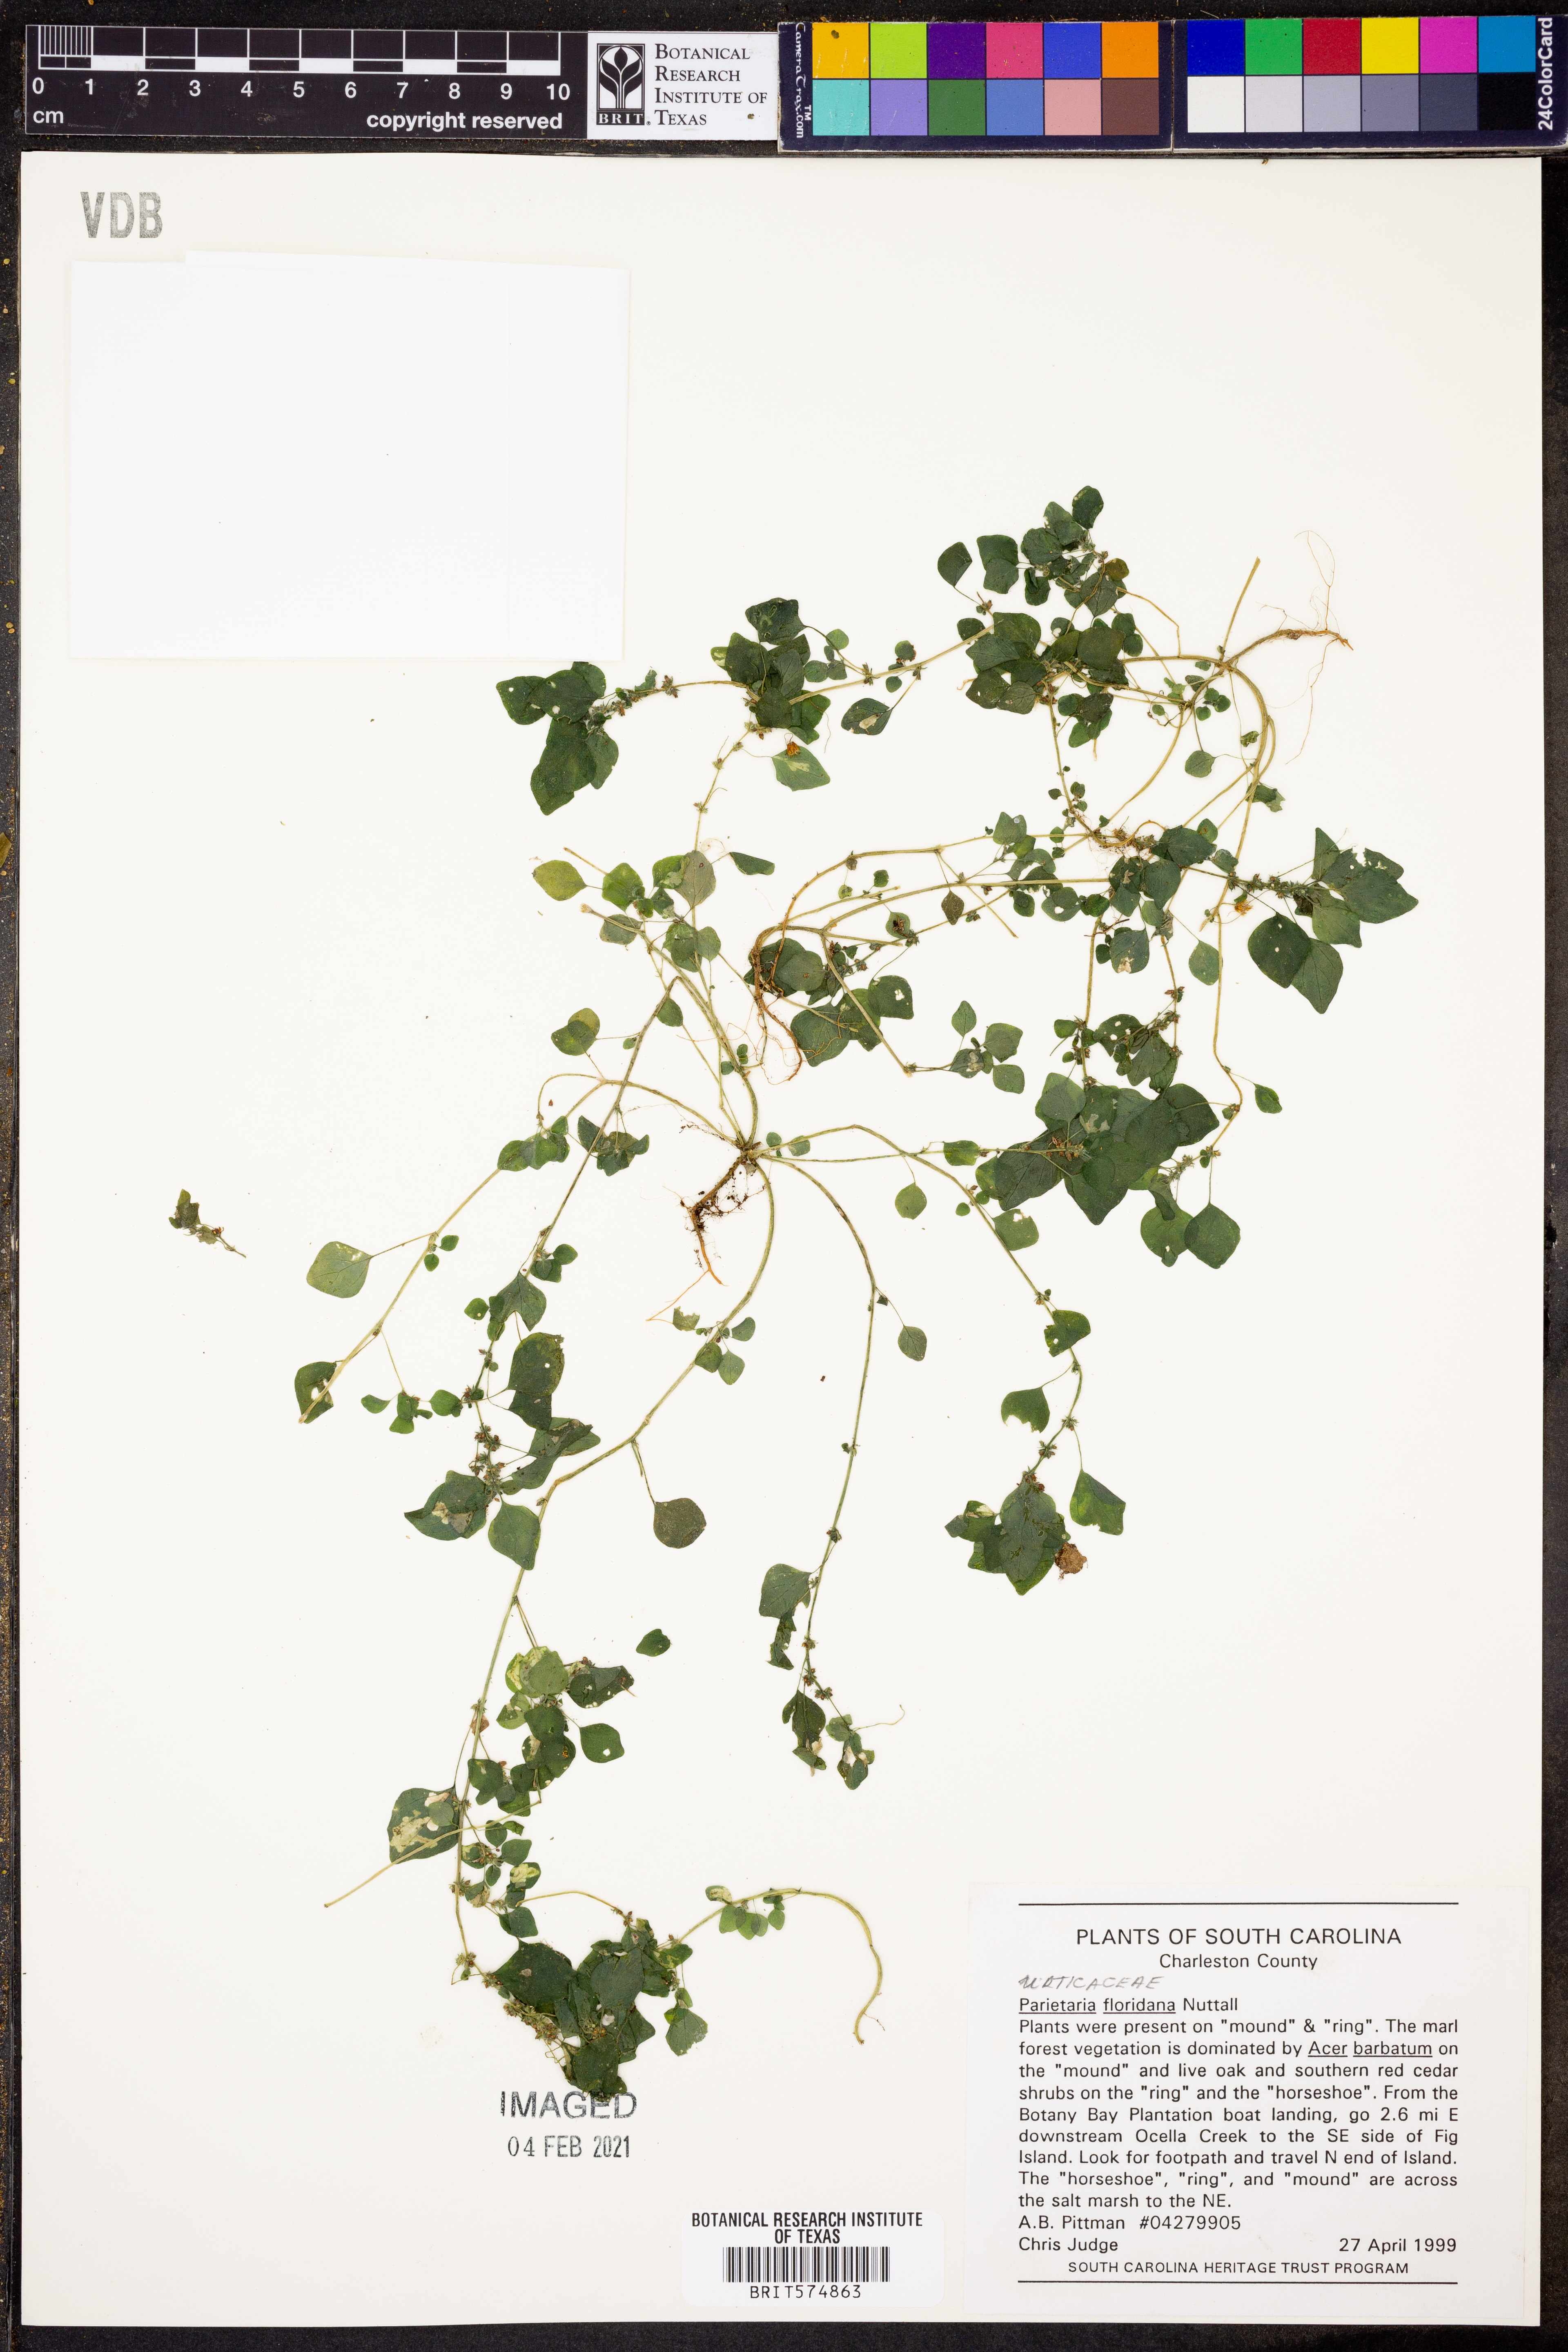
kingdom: Plantae
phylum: Tracheophyta
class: Magnoliopsida
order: Rosales
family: Urticaceae
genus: Parietaria
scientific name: Parietaria floridana
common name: Florida pellitory
